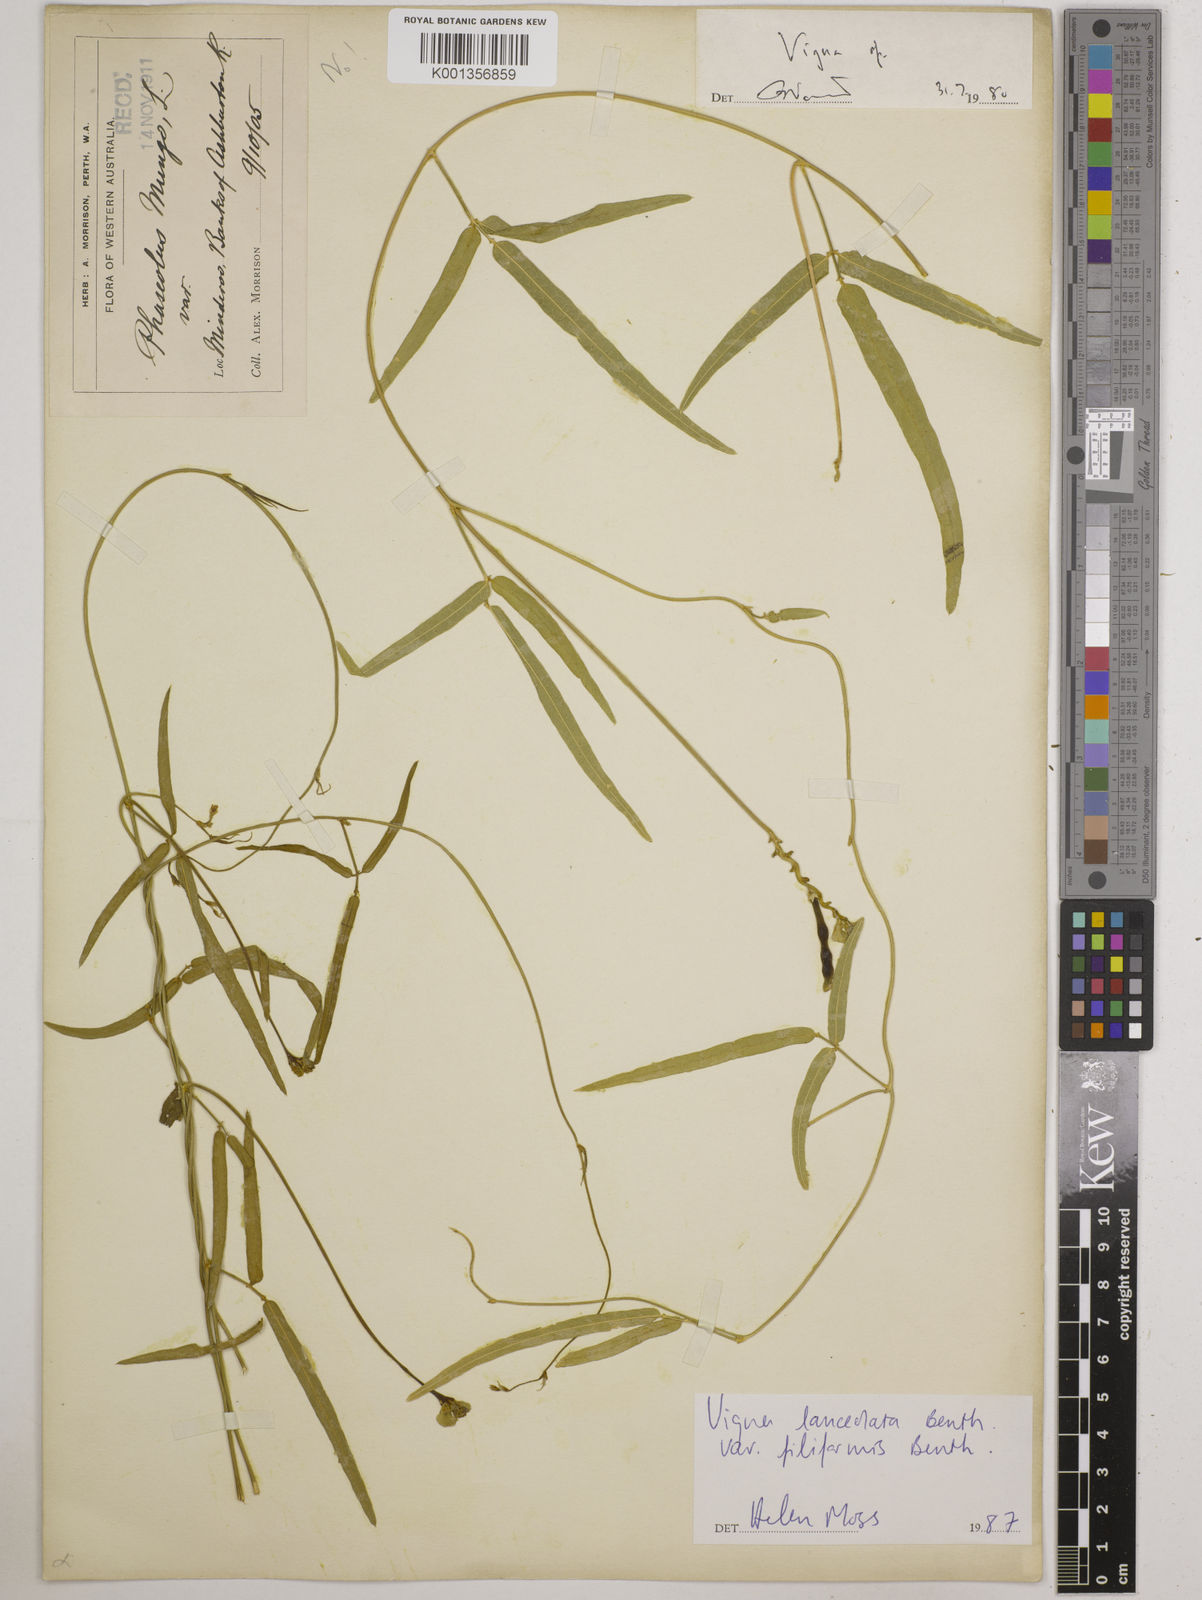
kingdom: Plantae
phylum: Tracheophyta
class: Magnoliopsida
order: Fabales
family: Fabaceae
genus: Vigna
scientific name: Vigna lanceolata
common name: Maloga-bean
